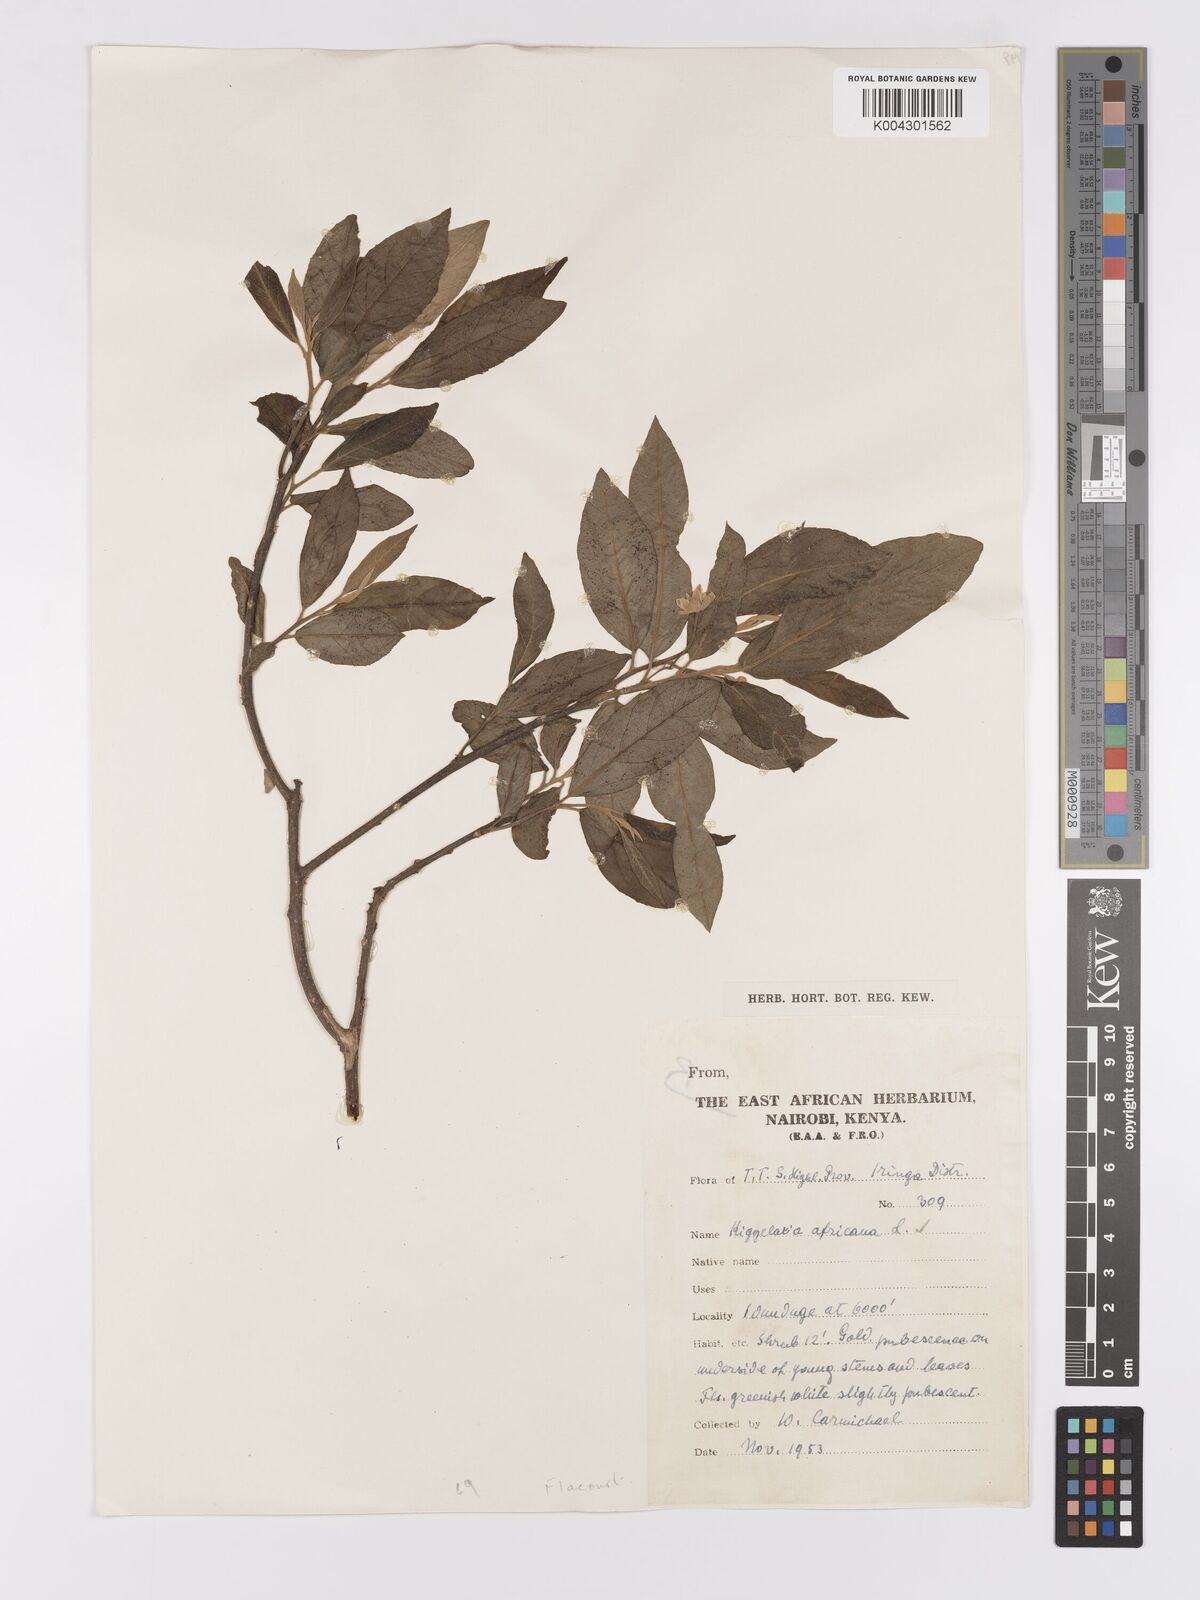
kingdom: Plantae
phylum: Tracheophyta
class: Magnoliopsida
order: Malpighiales
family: Achariaceae
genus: Kiggelaria
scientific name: Kiggelaria
